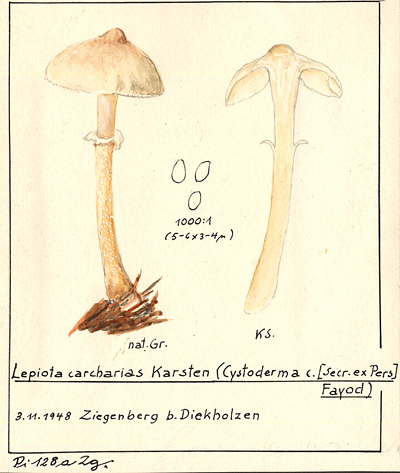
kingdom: Fungi
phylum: Basidiomycota
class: Agaricomycetes
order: Agaricales
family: Tricholomataceae
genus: Cystoderma
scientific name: Cystoderma carcharias
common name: Pearly powdercap
